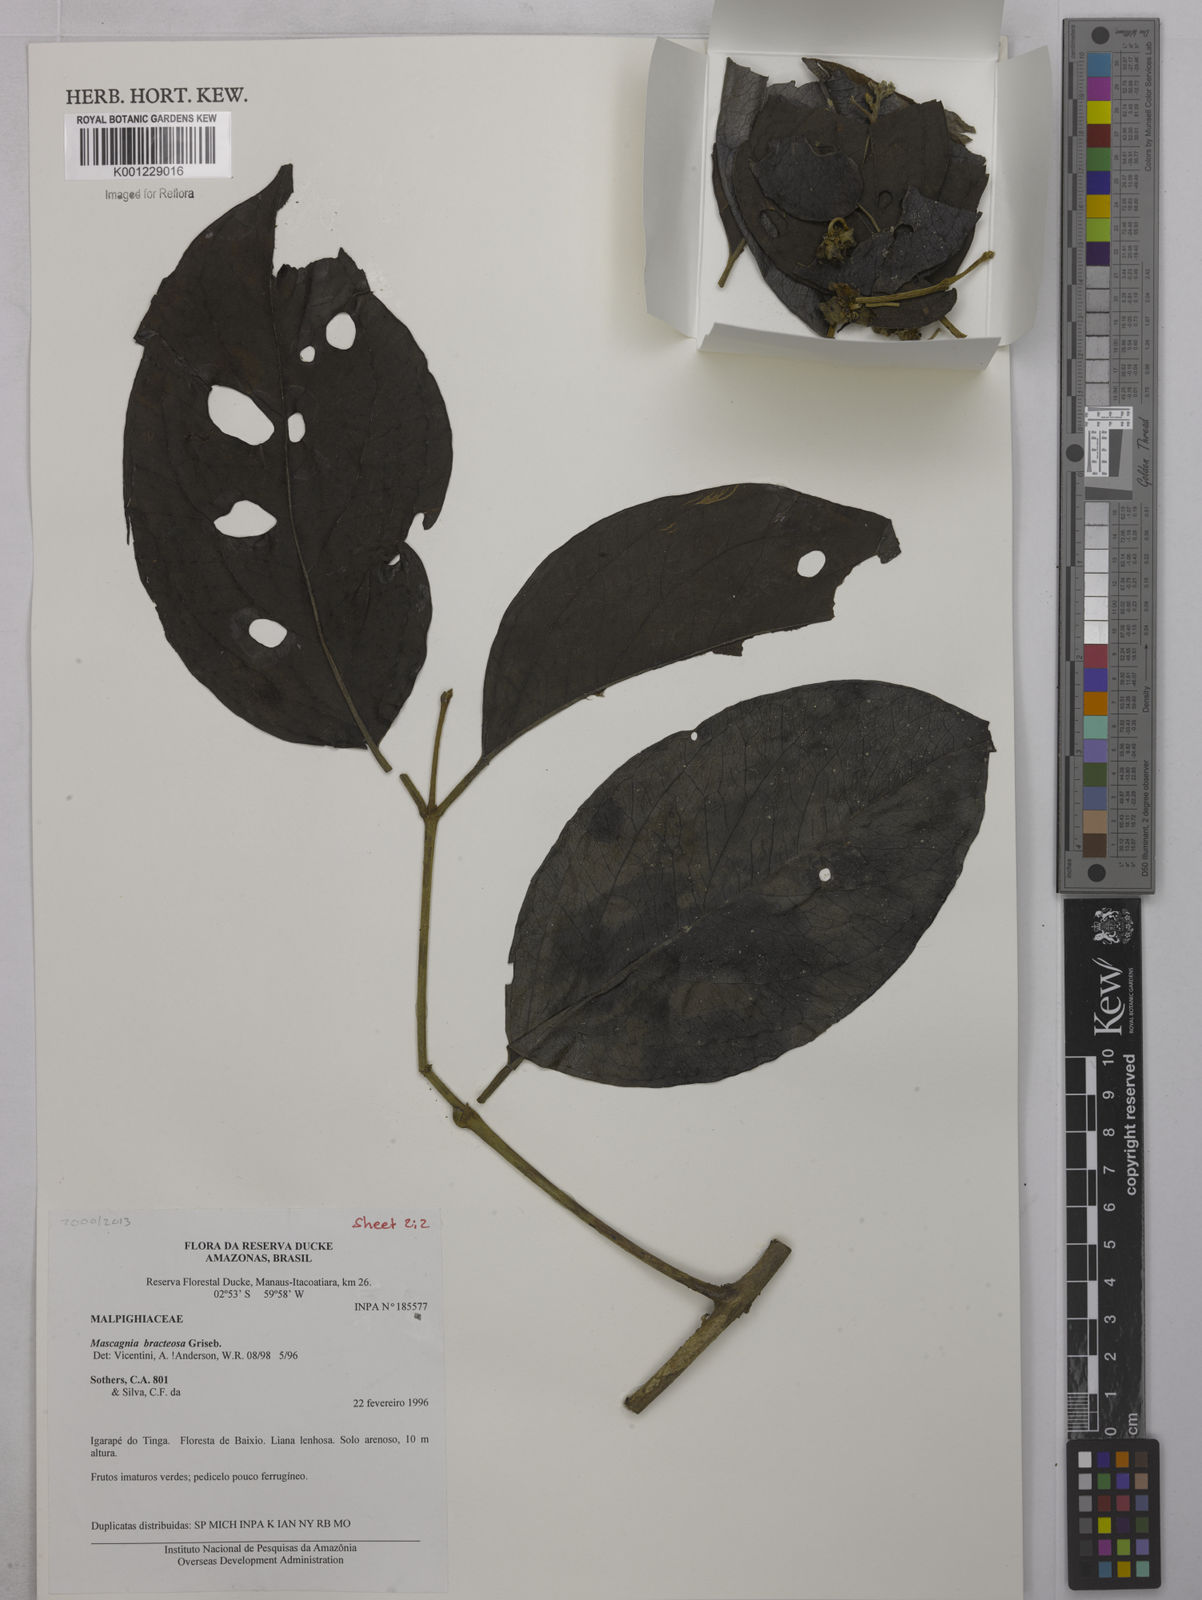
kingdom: Plantae
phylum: Tracheophyta
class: Magnoliopsida
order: Malpighiales
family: Malpighiaceae
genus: Malpighiodes
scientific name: Malpighiodes bracteosa
